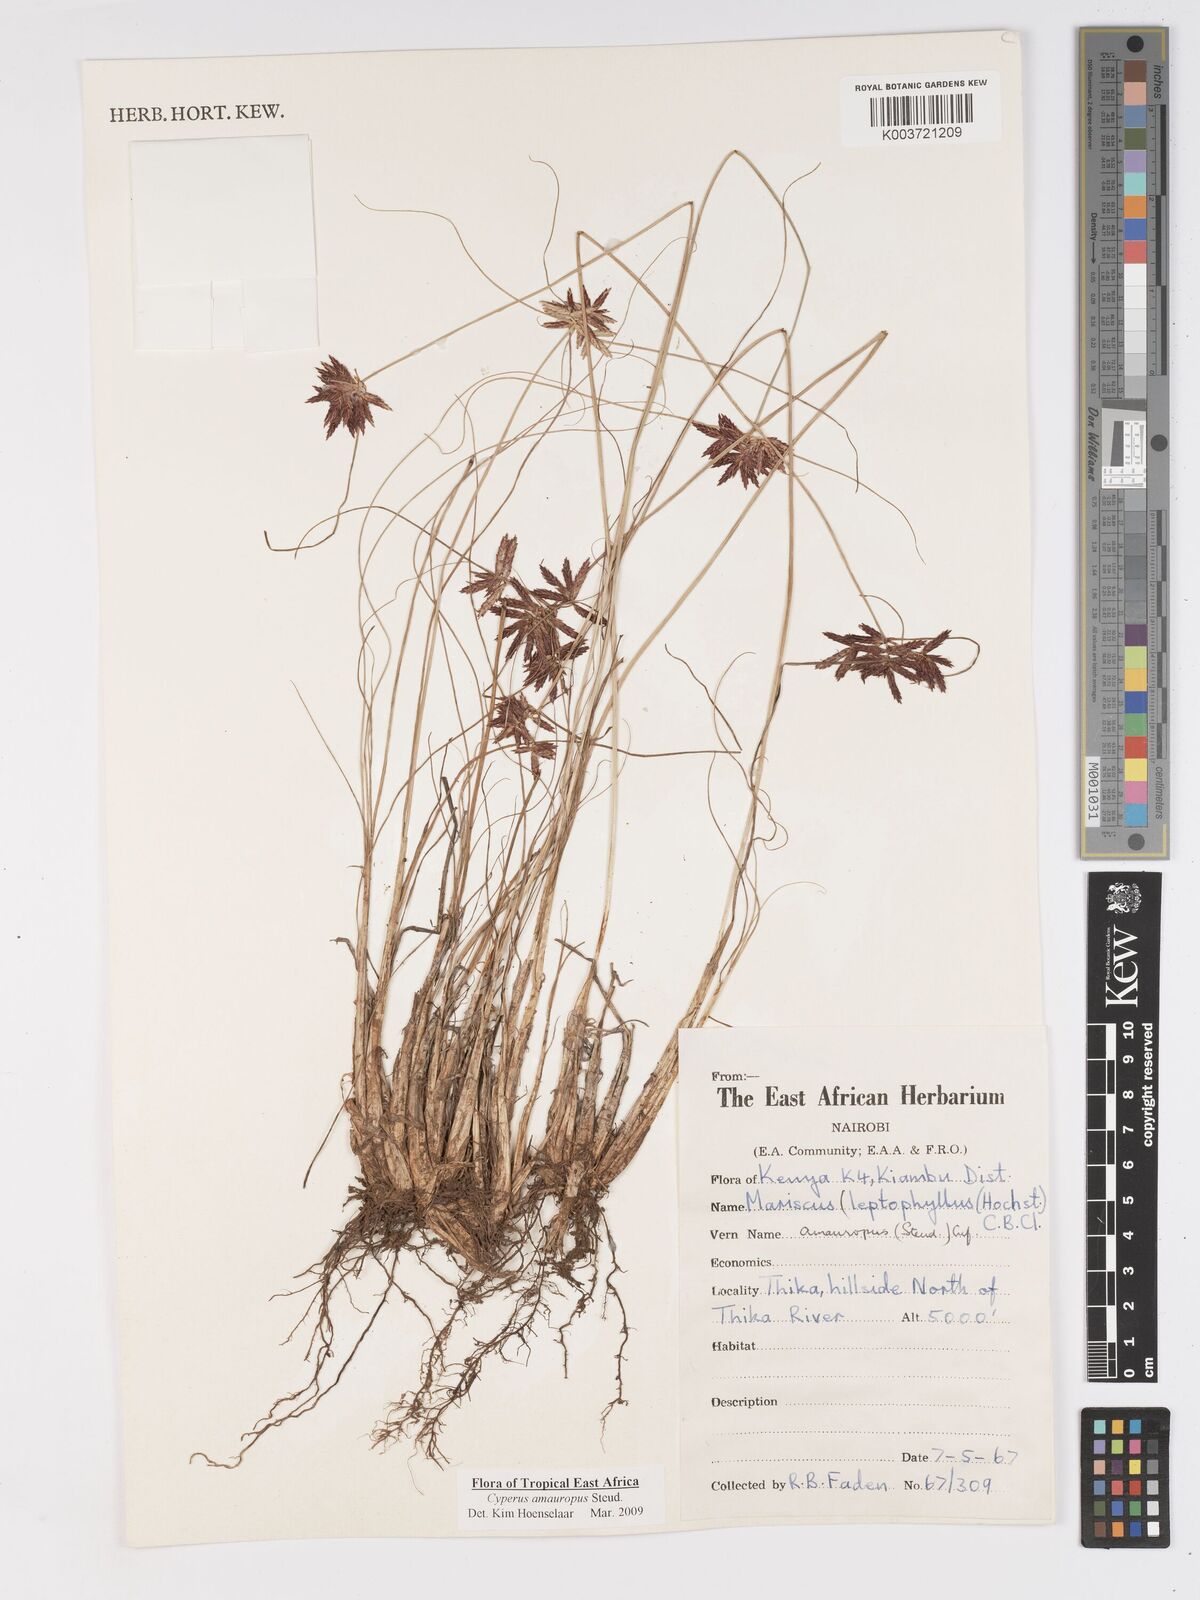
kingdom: Plantae
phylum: Tracheophyta
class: Liliopsida
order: Poales
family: Cyperaceae
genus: Cyperus
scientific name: Cyperus amauropus
